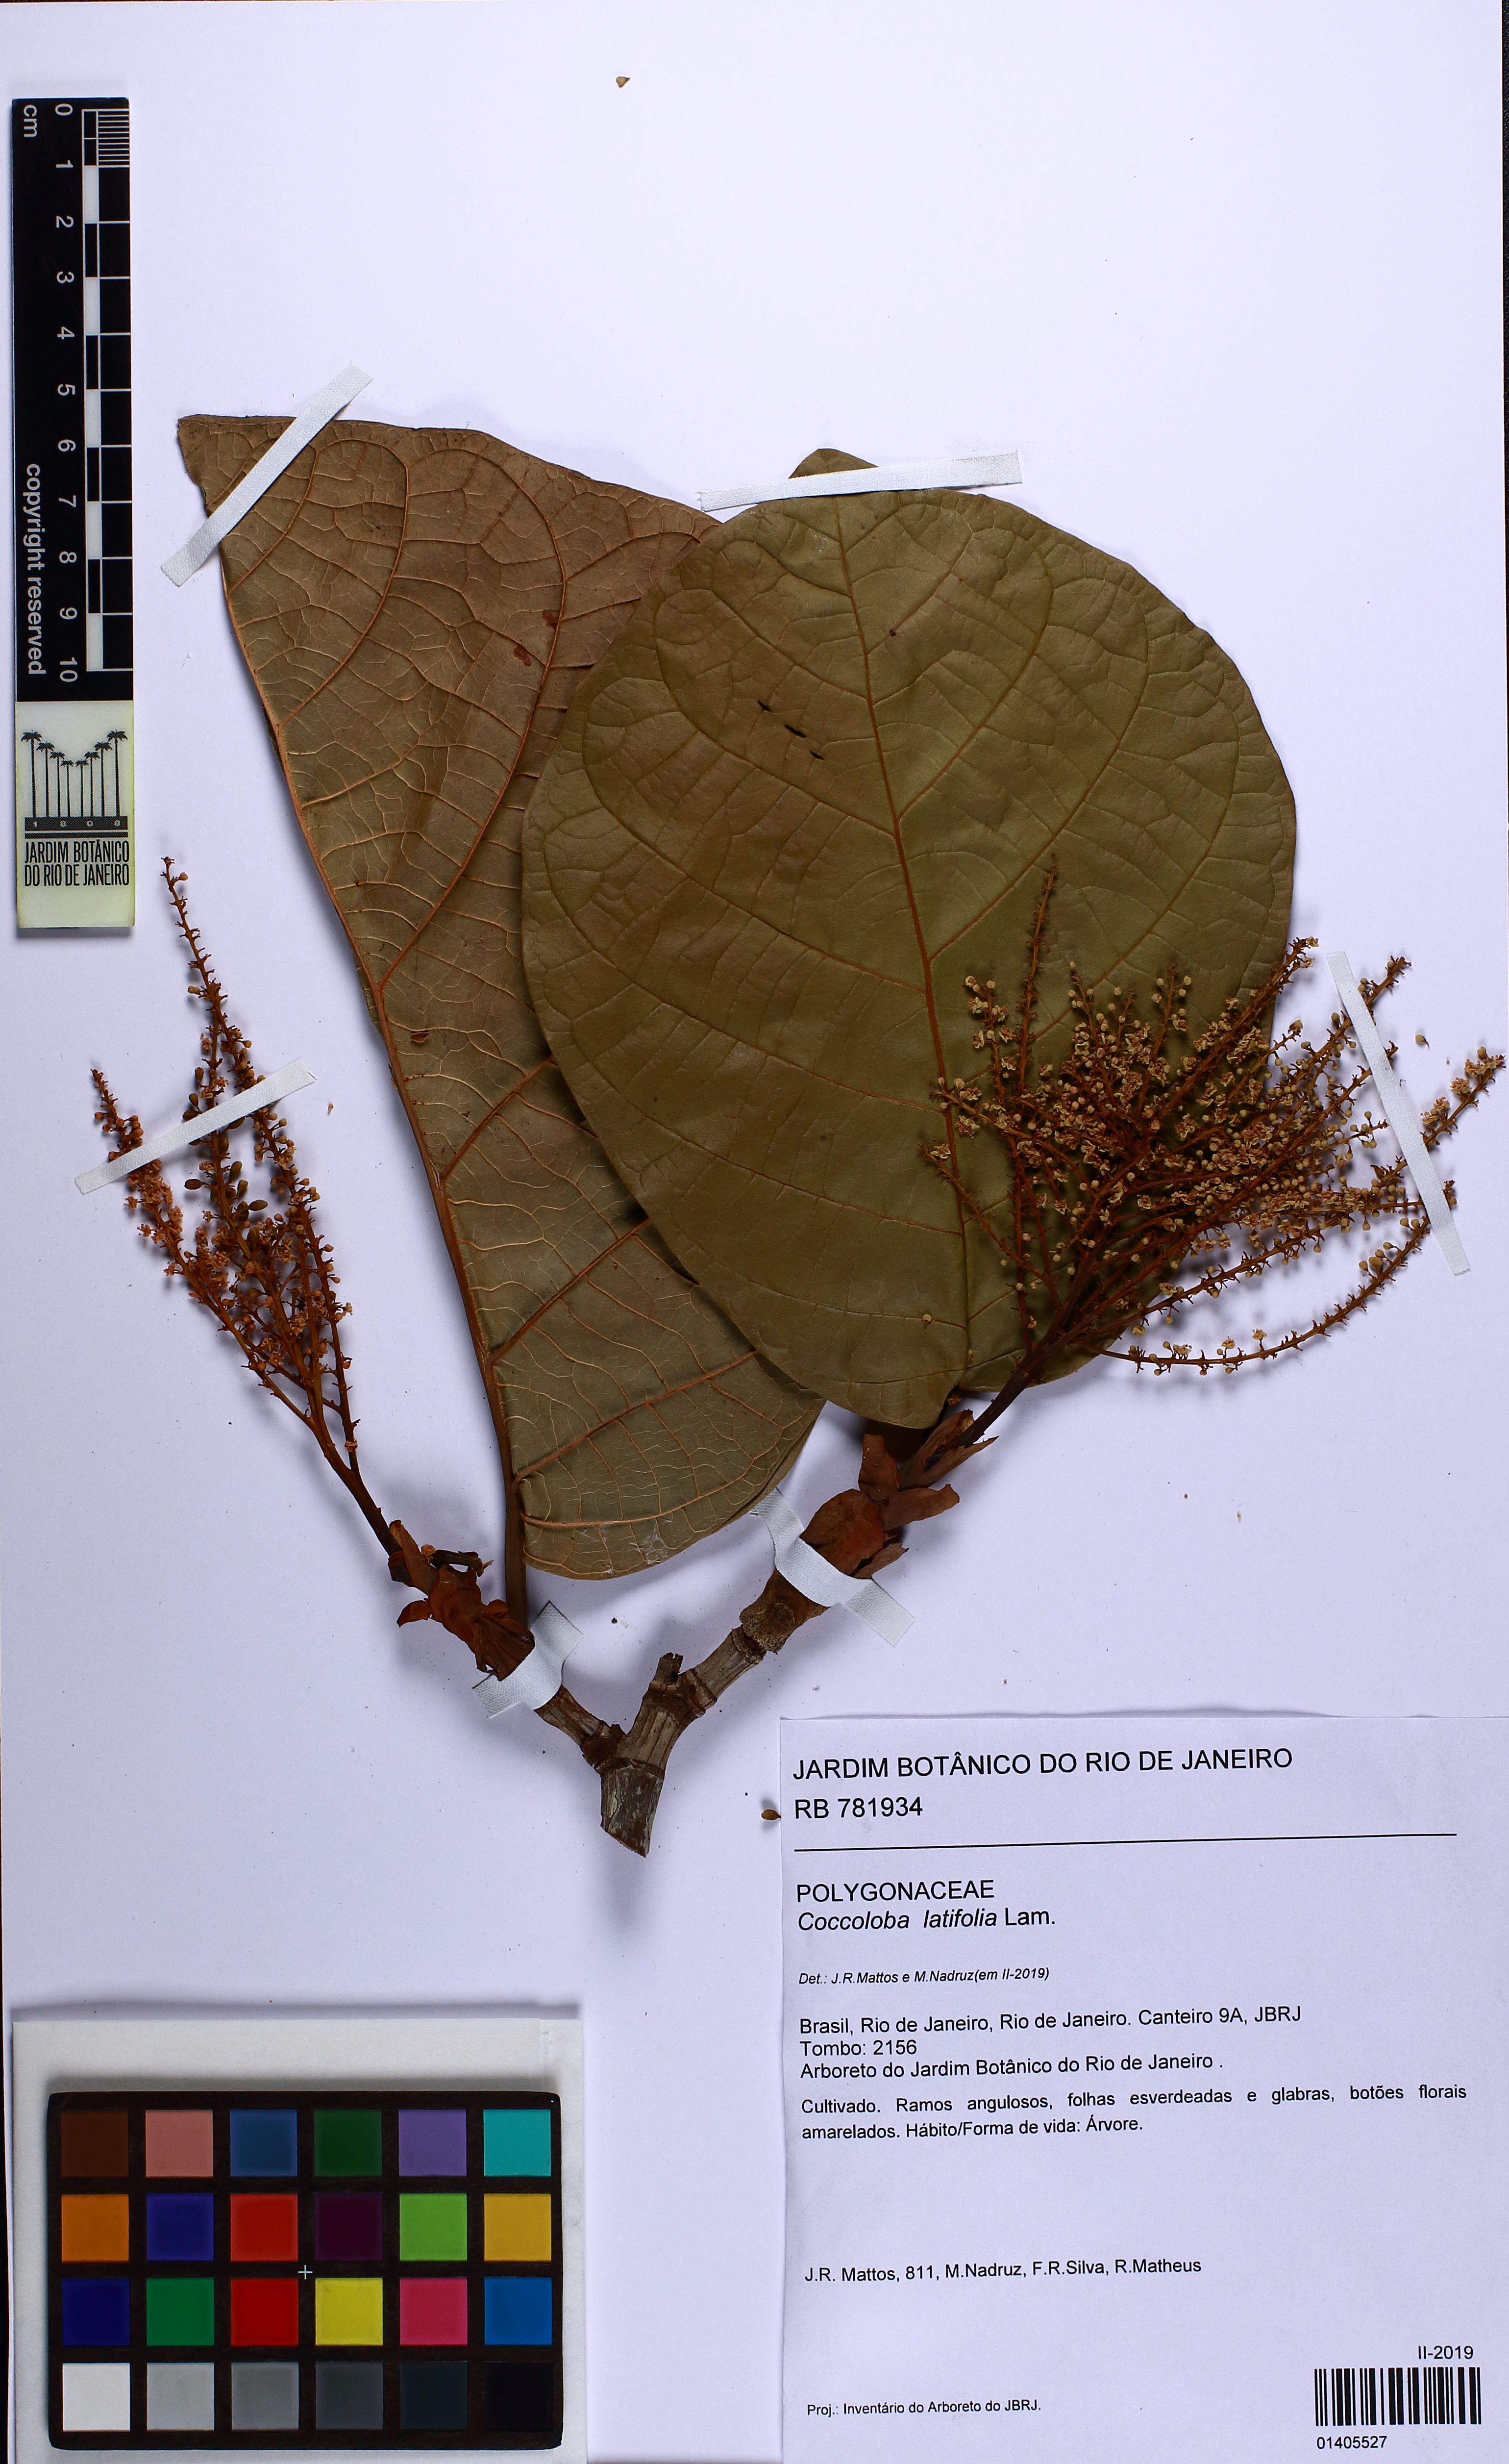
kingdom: Plantae
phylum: Tracheophyta
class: Magnoliopsida
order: Caryophyllales
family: Polygonaceae
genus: Coccoloba
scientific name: Coccoloba latifolia
